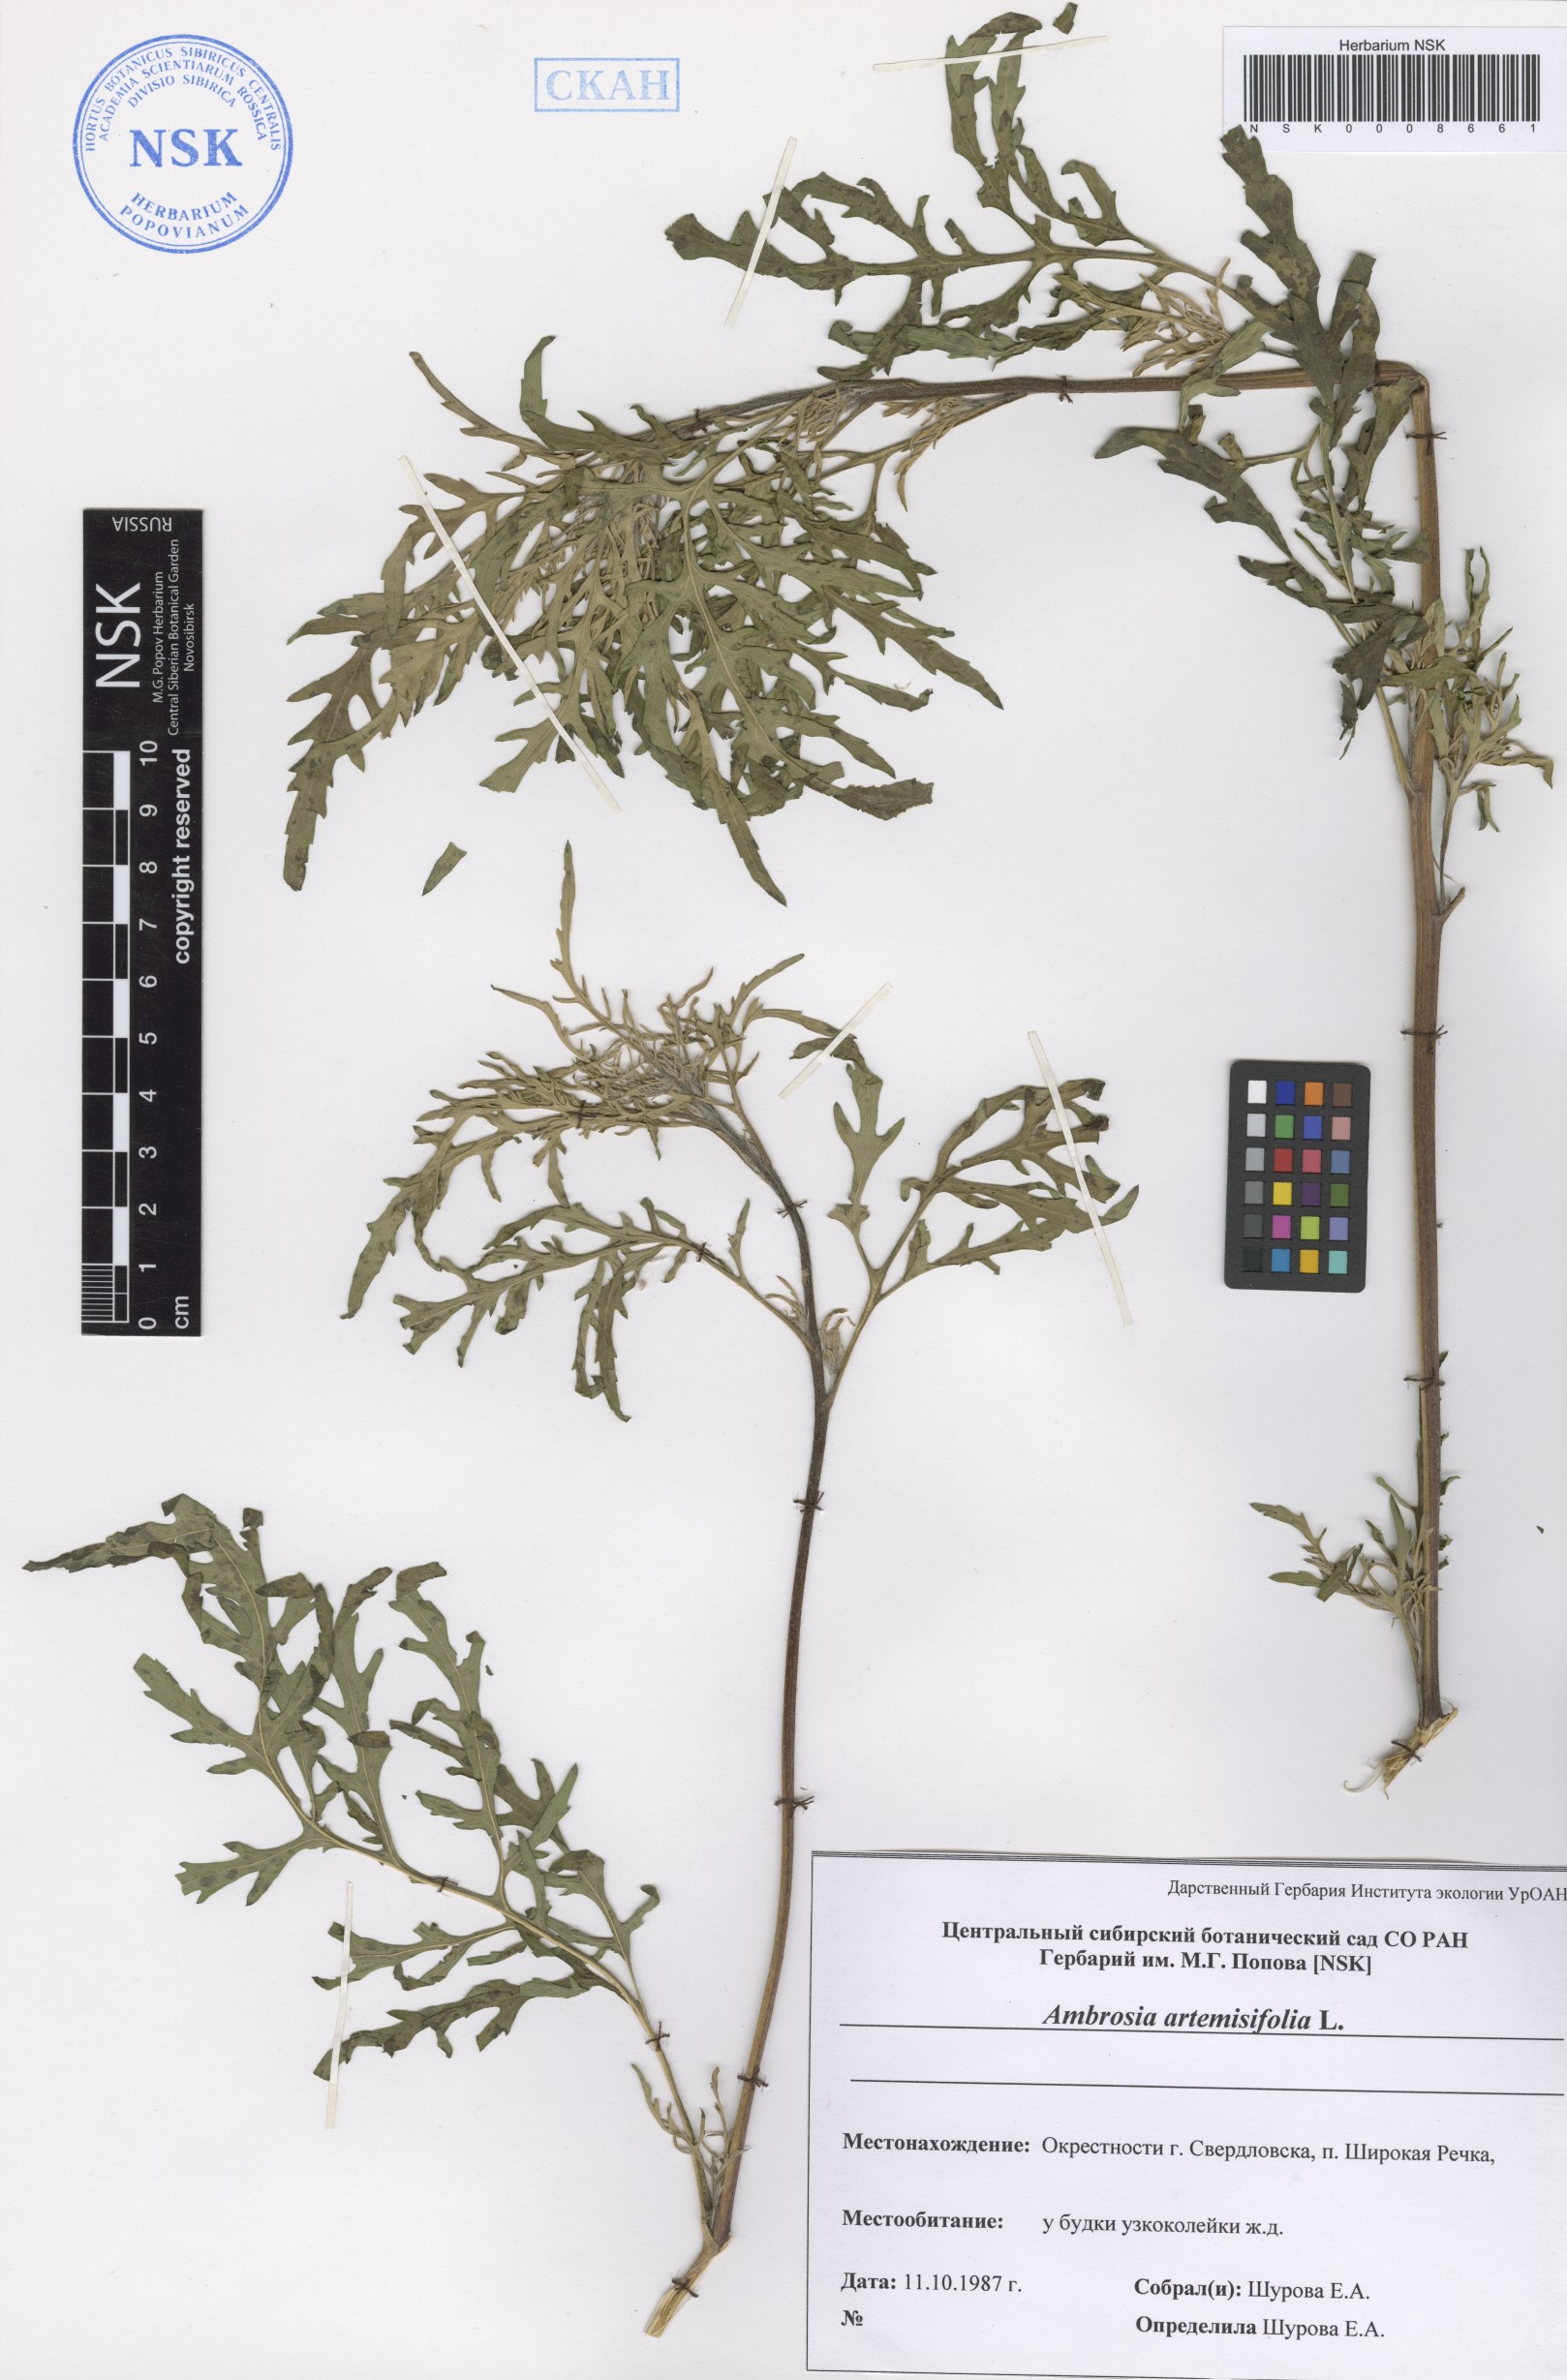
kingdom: Plantae
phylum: Tracheophyta
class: Magnoliopsida
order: Asterales
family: Asteraceae
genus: Ambrosia
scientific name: Ambrosia artemisiifolia
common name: Annual ragweed
